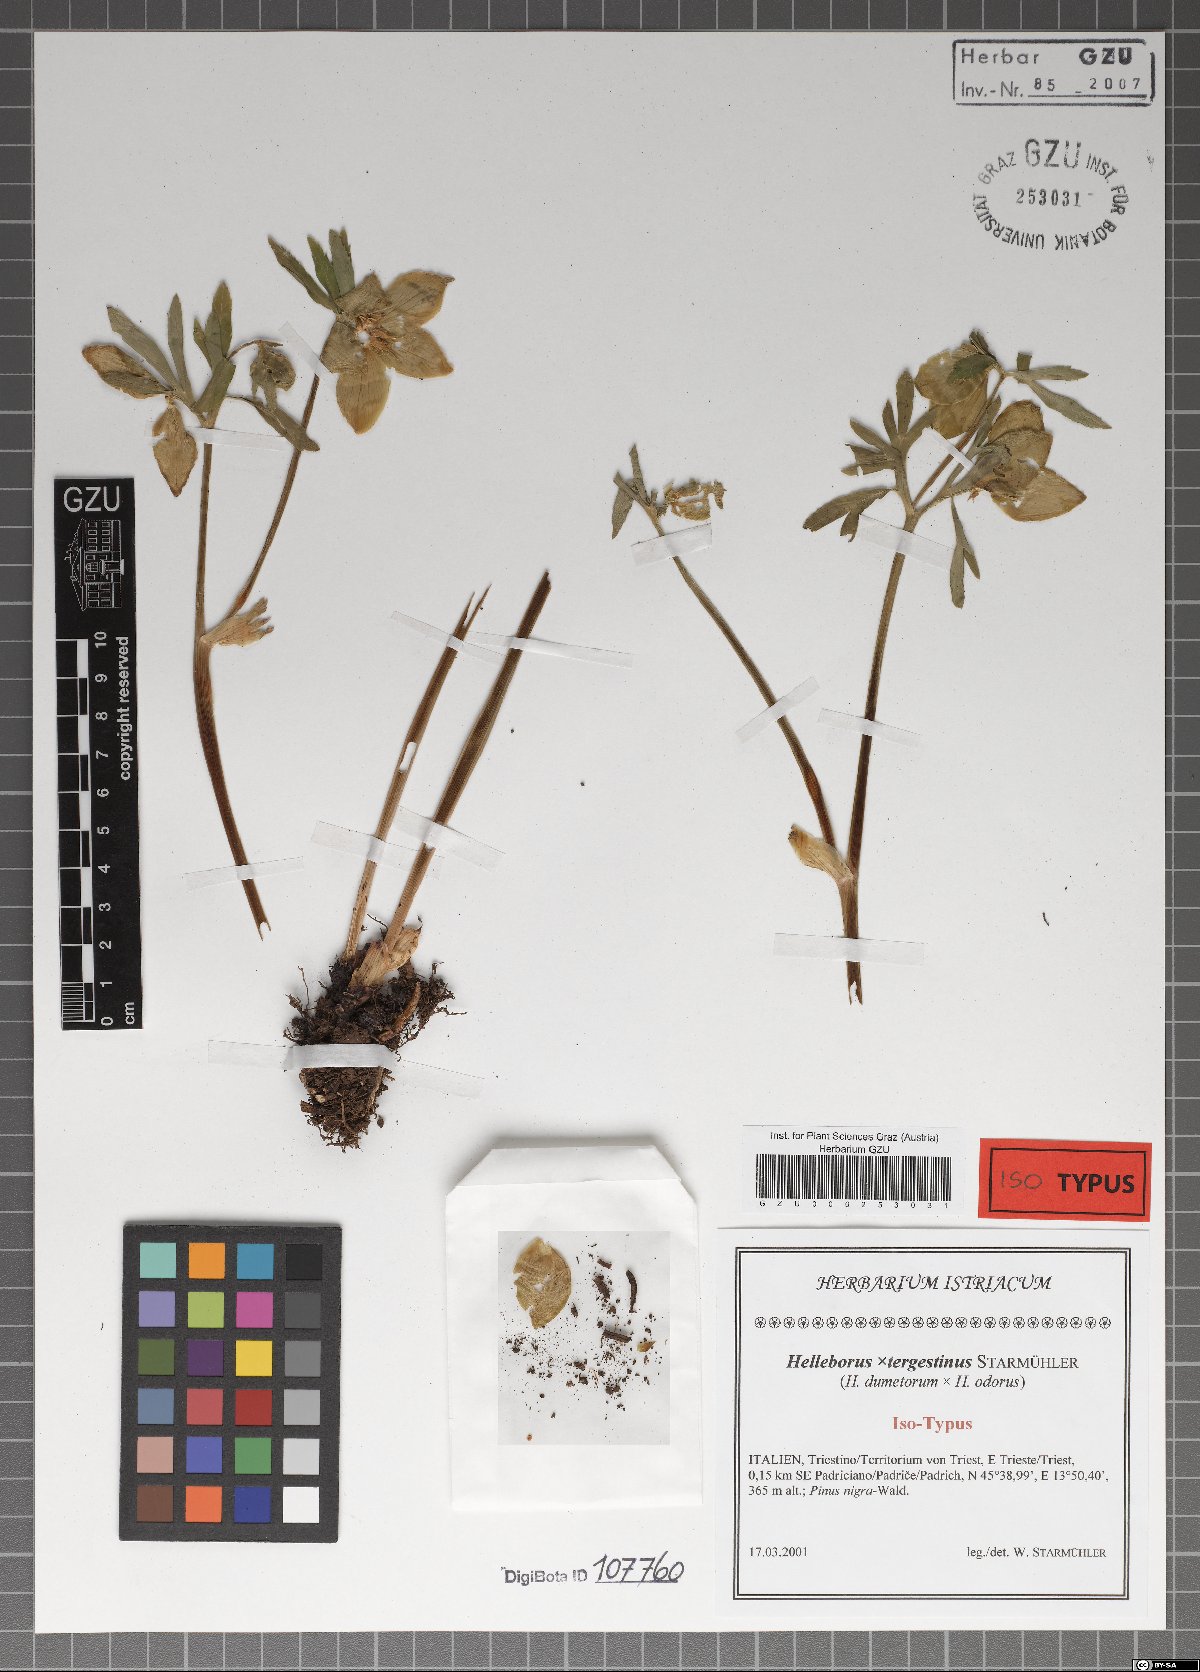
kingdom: Plantae
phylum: Tracheophyta
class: Magnoliopsida
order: Ranunculales
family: Ranunculaceae
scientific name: Ranunculaceae
